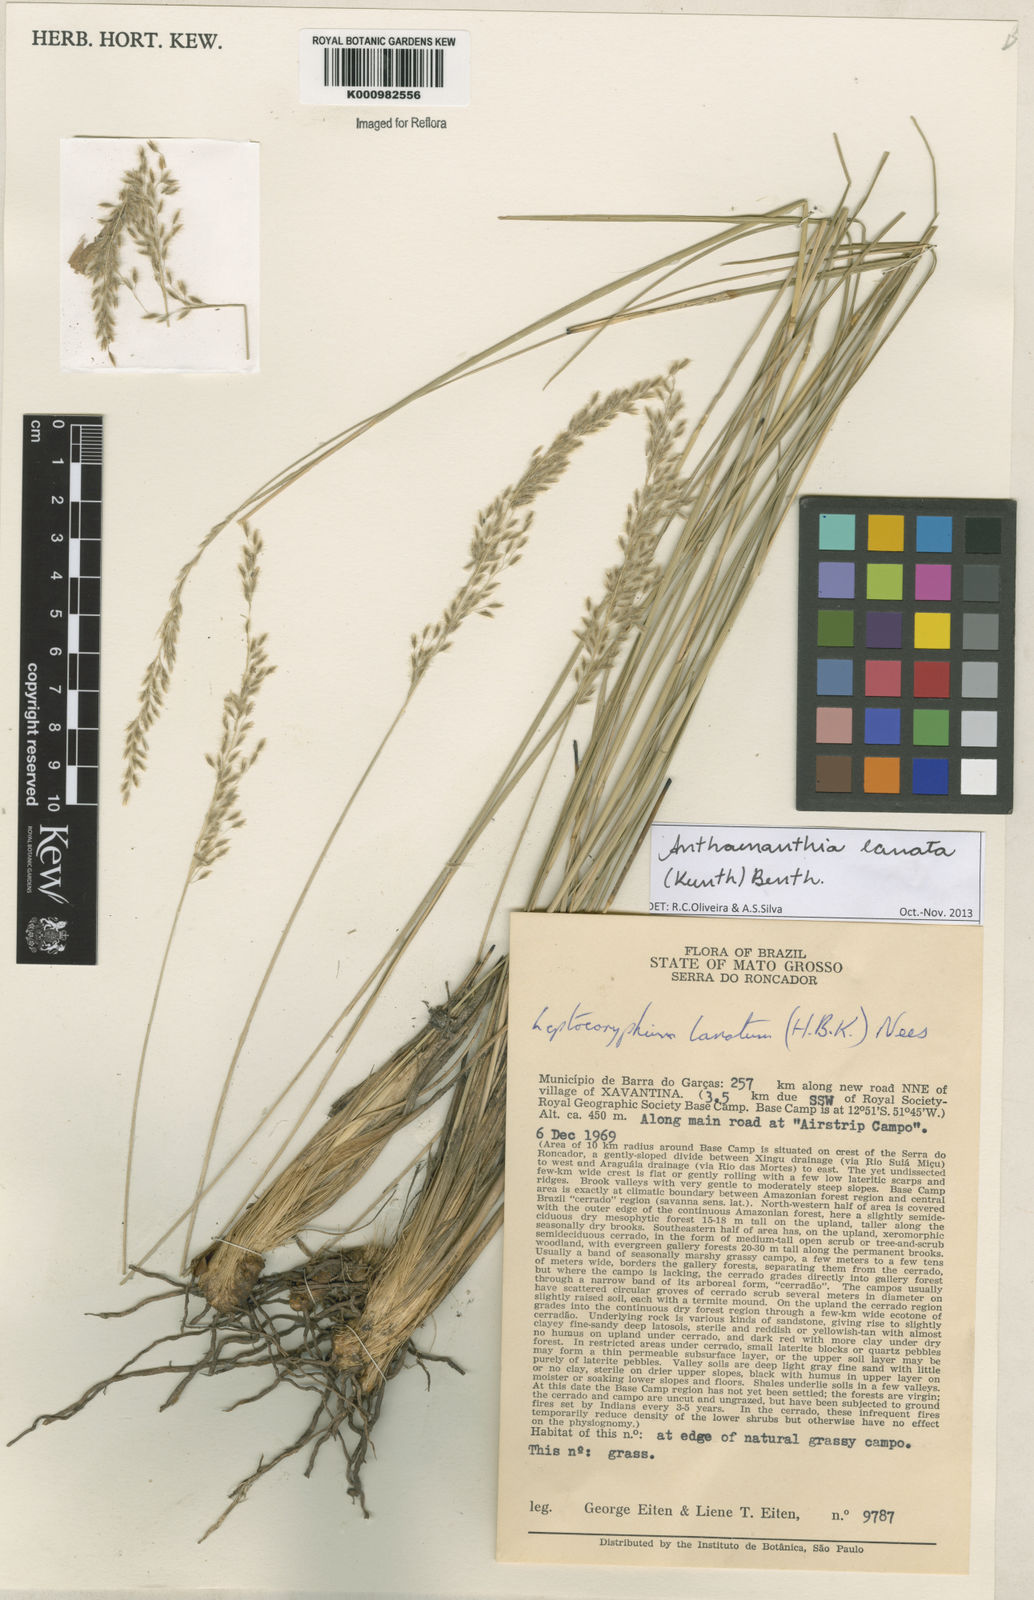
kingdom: Plantae
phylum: Tracheophyta
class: Liliopsida
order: Poales
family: Poaceae
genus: Anthenantia
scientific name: Anthenantia lanata
